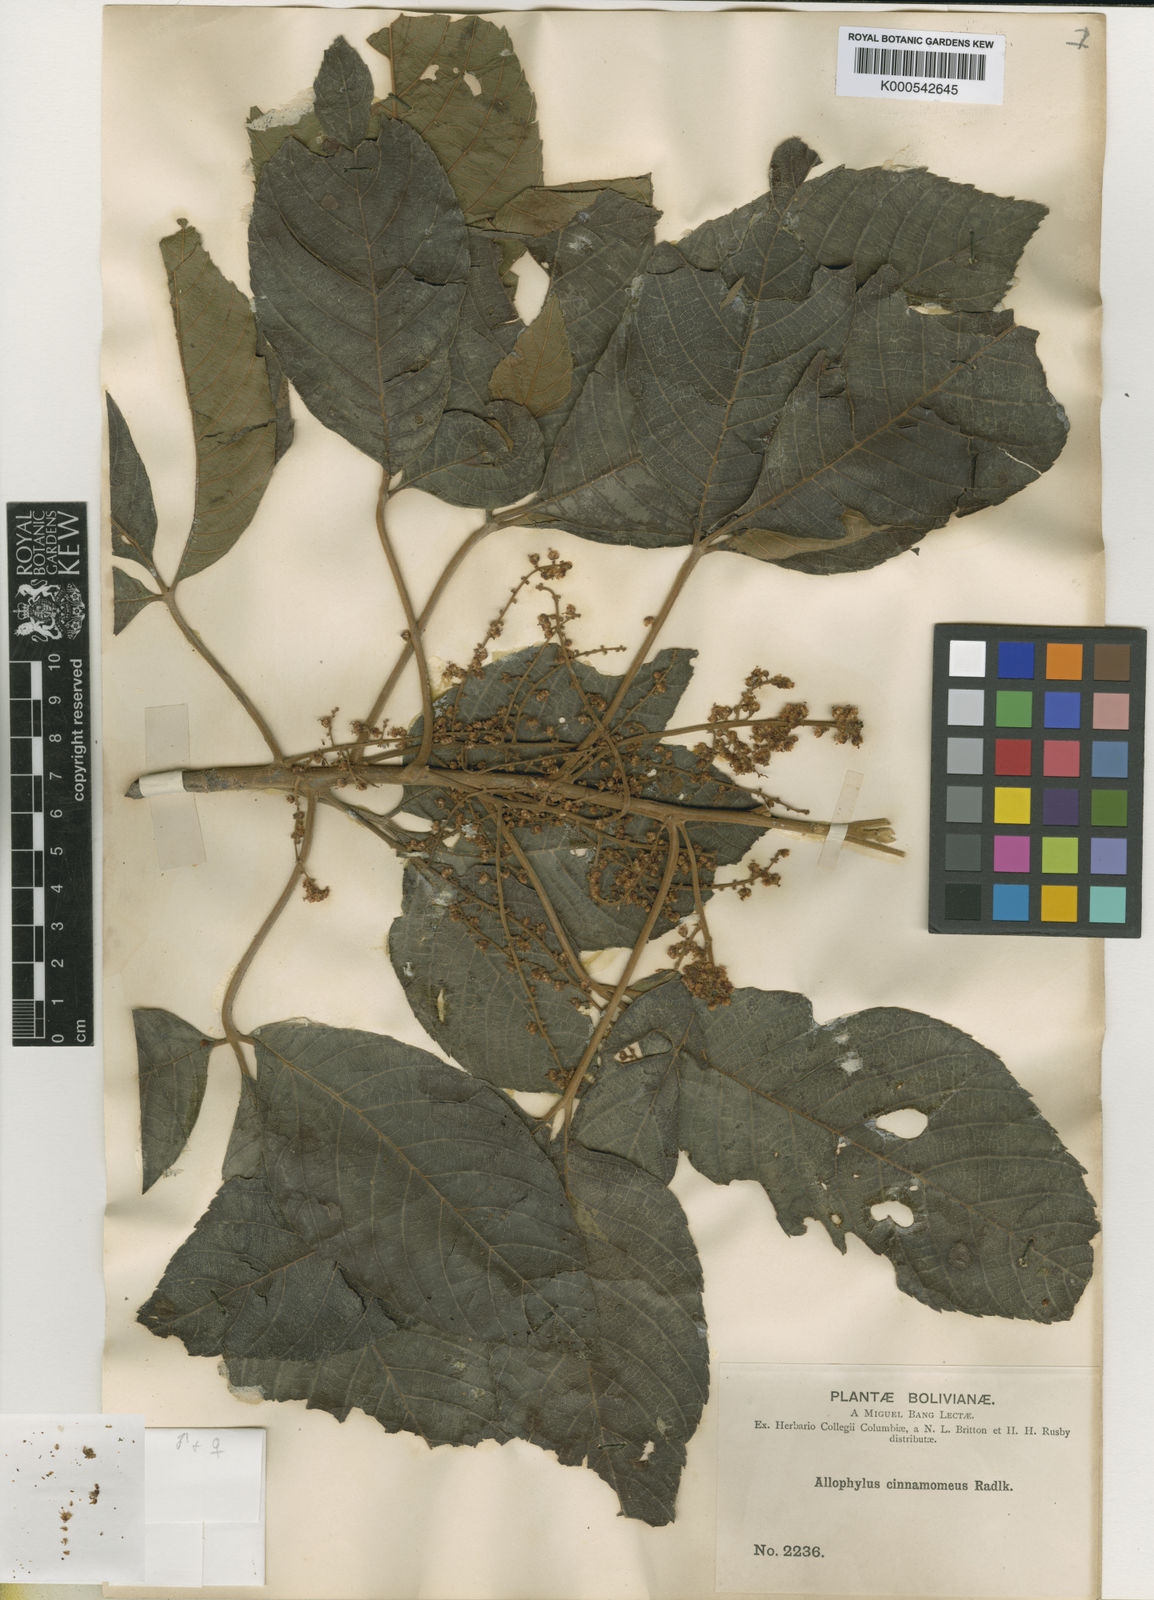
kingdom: Plantae
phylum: Tracheophyta
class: Magnoliopsida
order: Sapindales
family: Sapindaceae
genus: Allophylus
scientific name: Allophylus cinnamomeus
